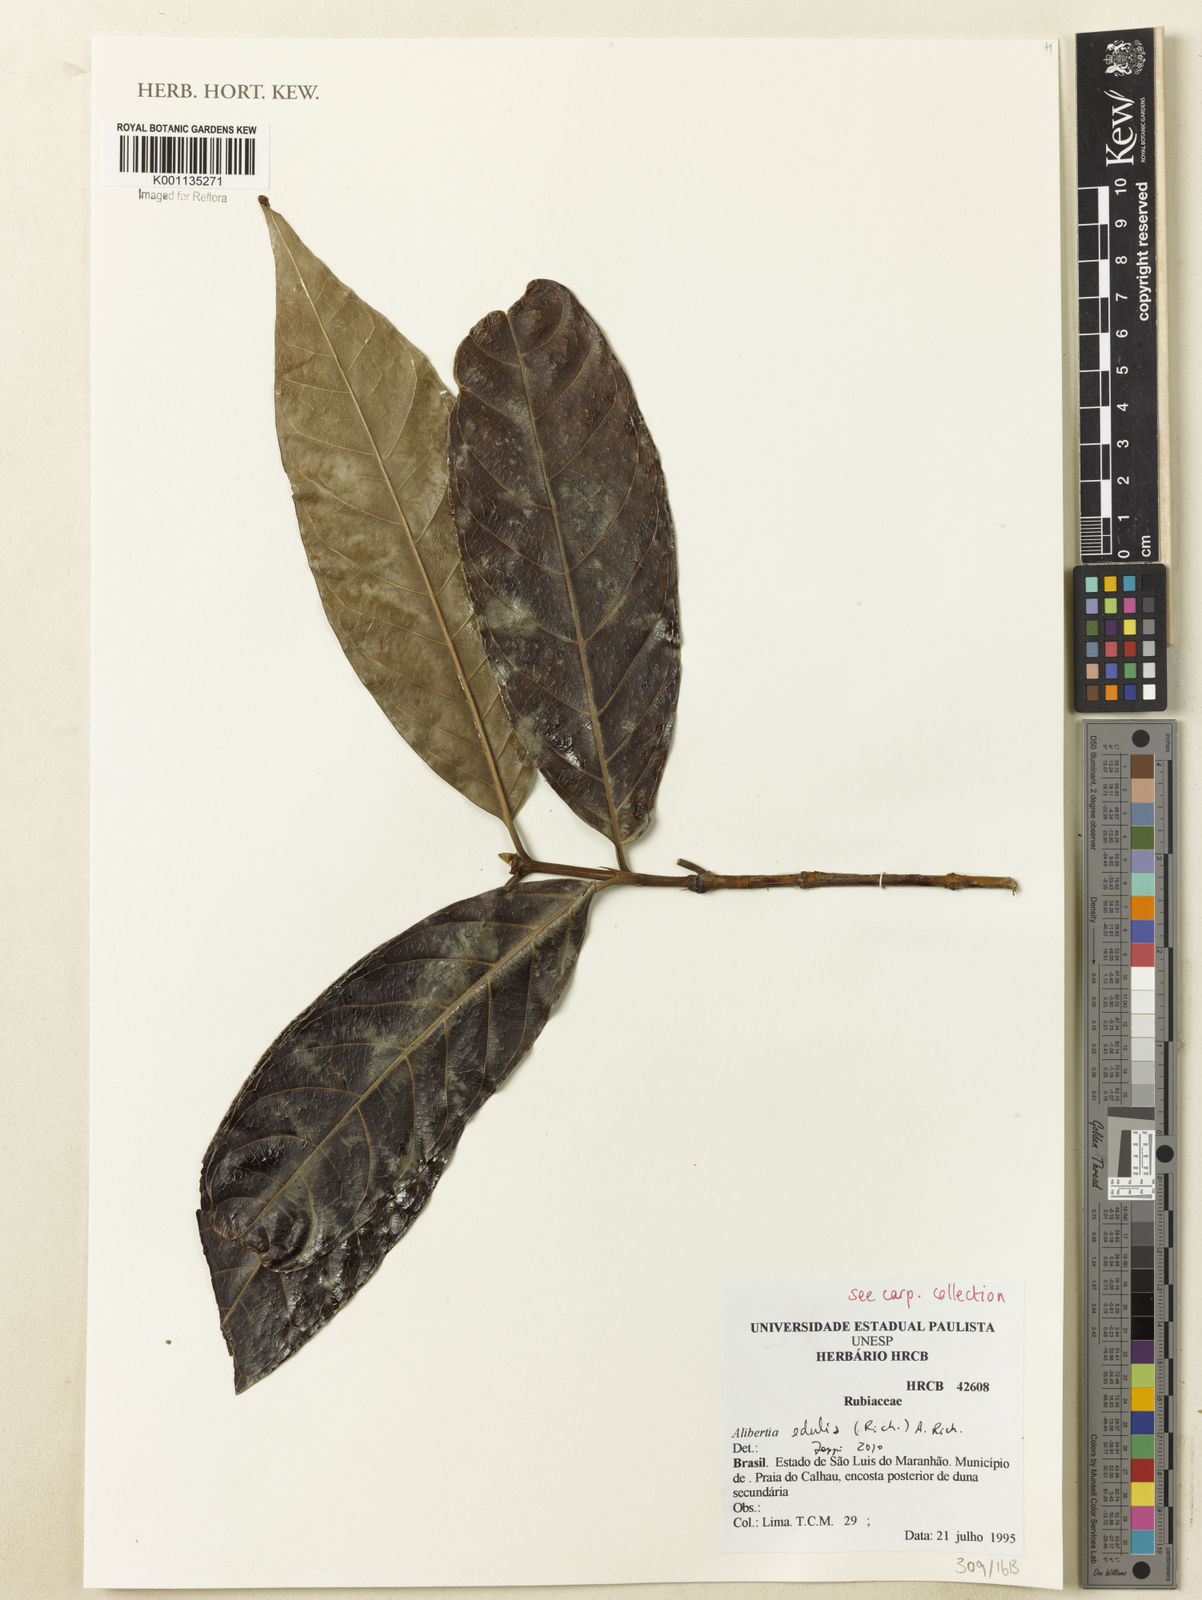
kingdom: Plantae
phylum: Tracheophyta
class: Magnoliopsida
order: Gentianales
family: Rubiaceae
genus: Alibertia
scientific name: Alibertia edulis
